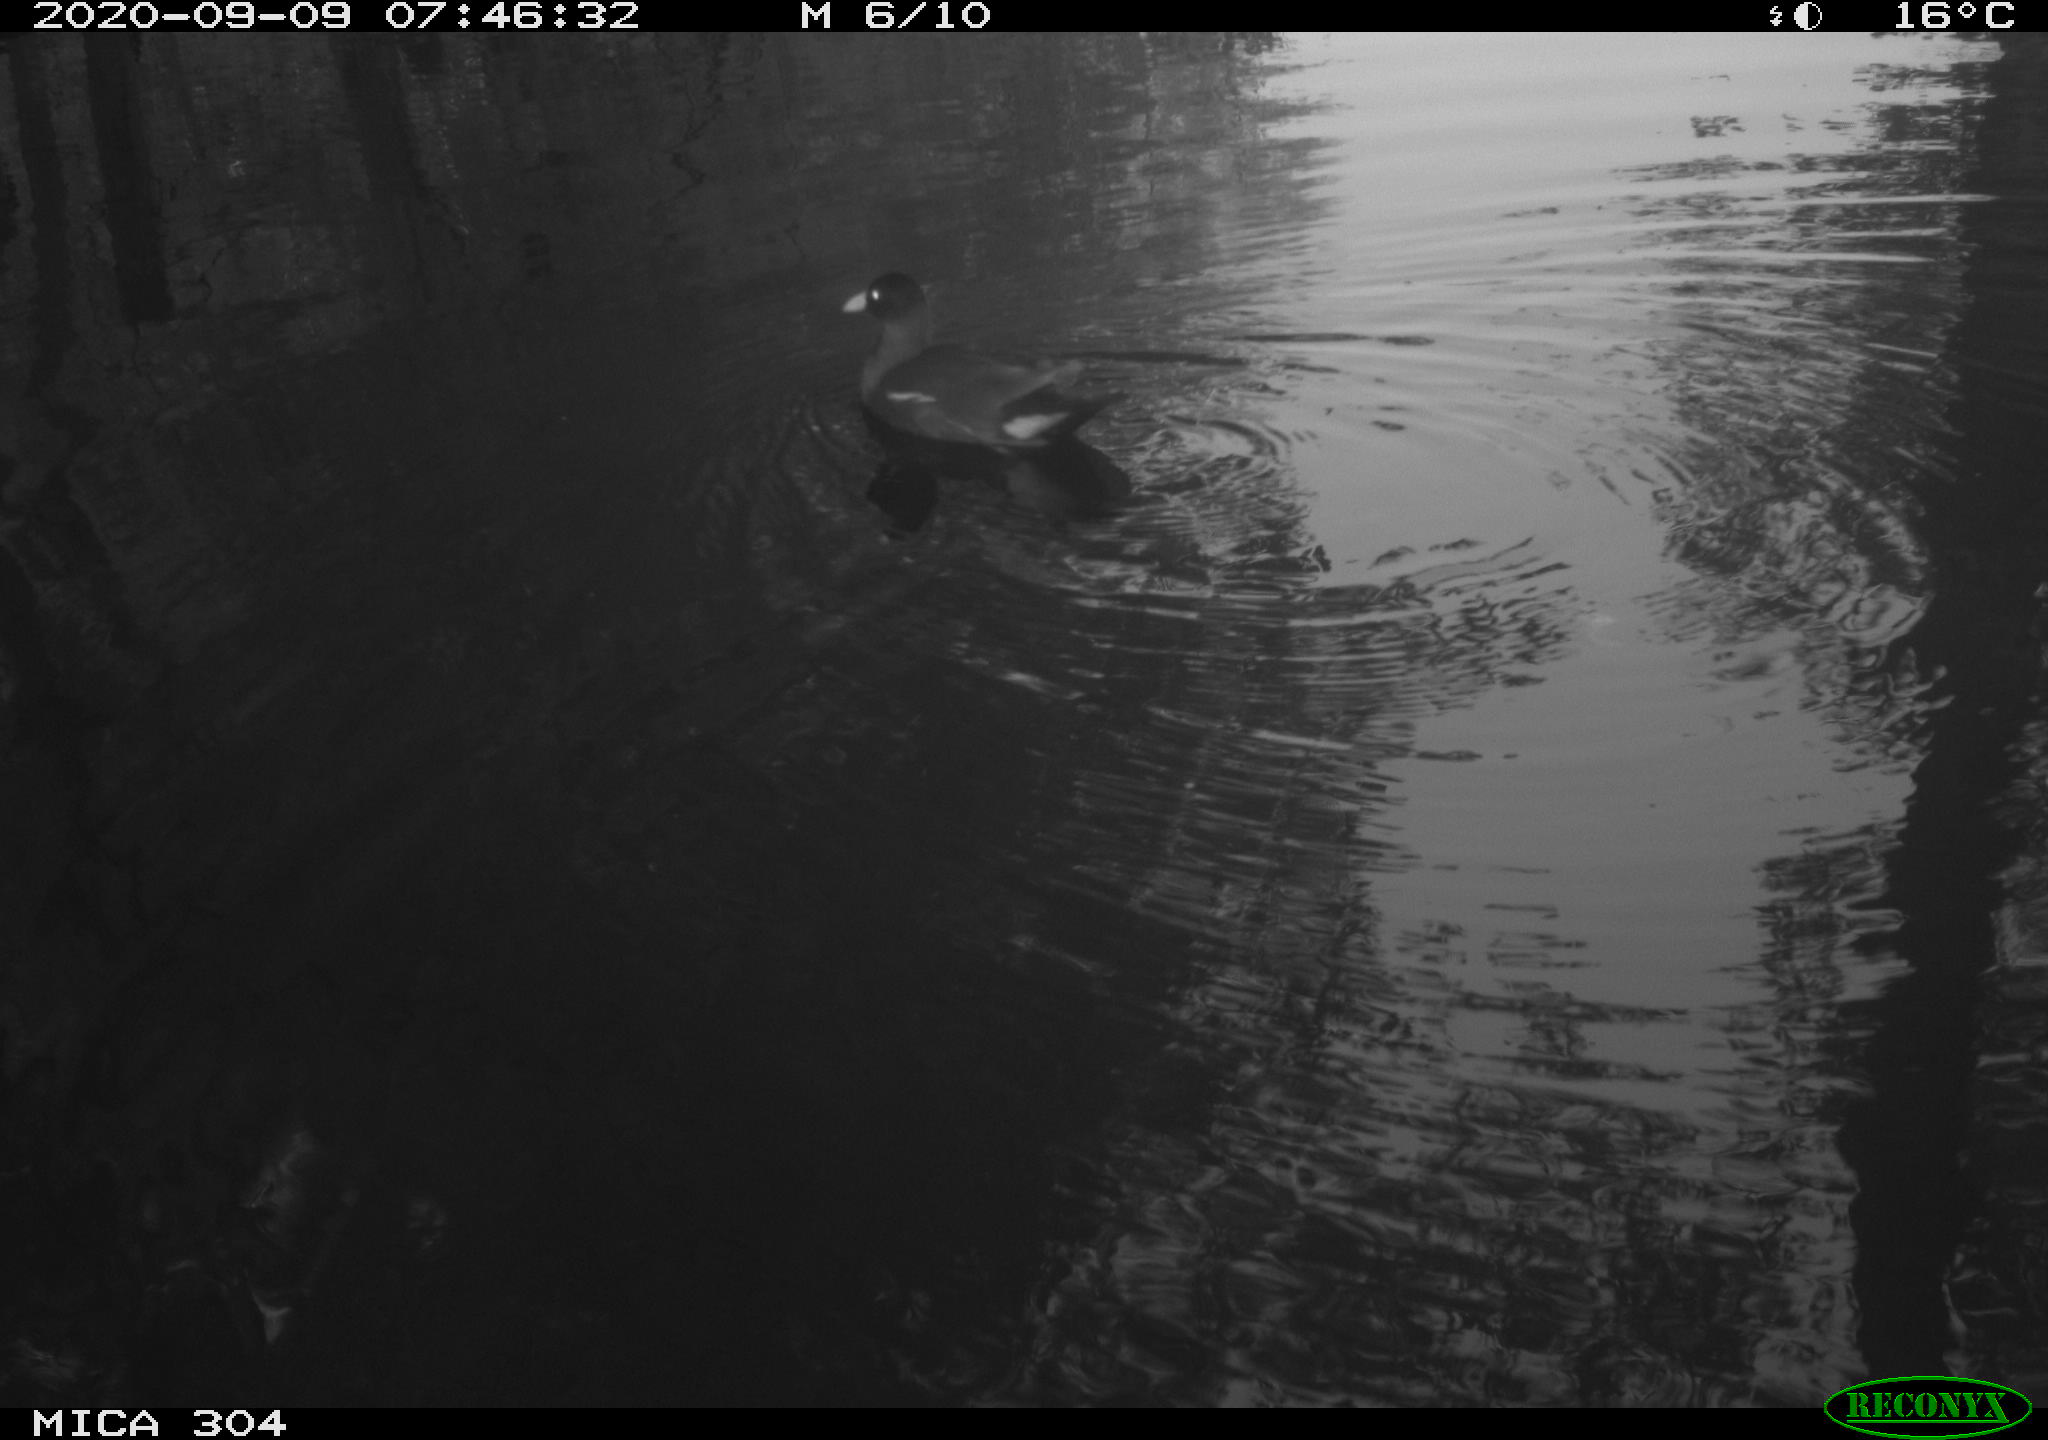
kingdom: Animalia
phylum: Chordata
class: Aves
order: Gruiformes
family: Rallidae
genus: Gallinula
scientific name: Gallinula chloropus
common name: Common moorhen
